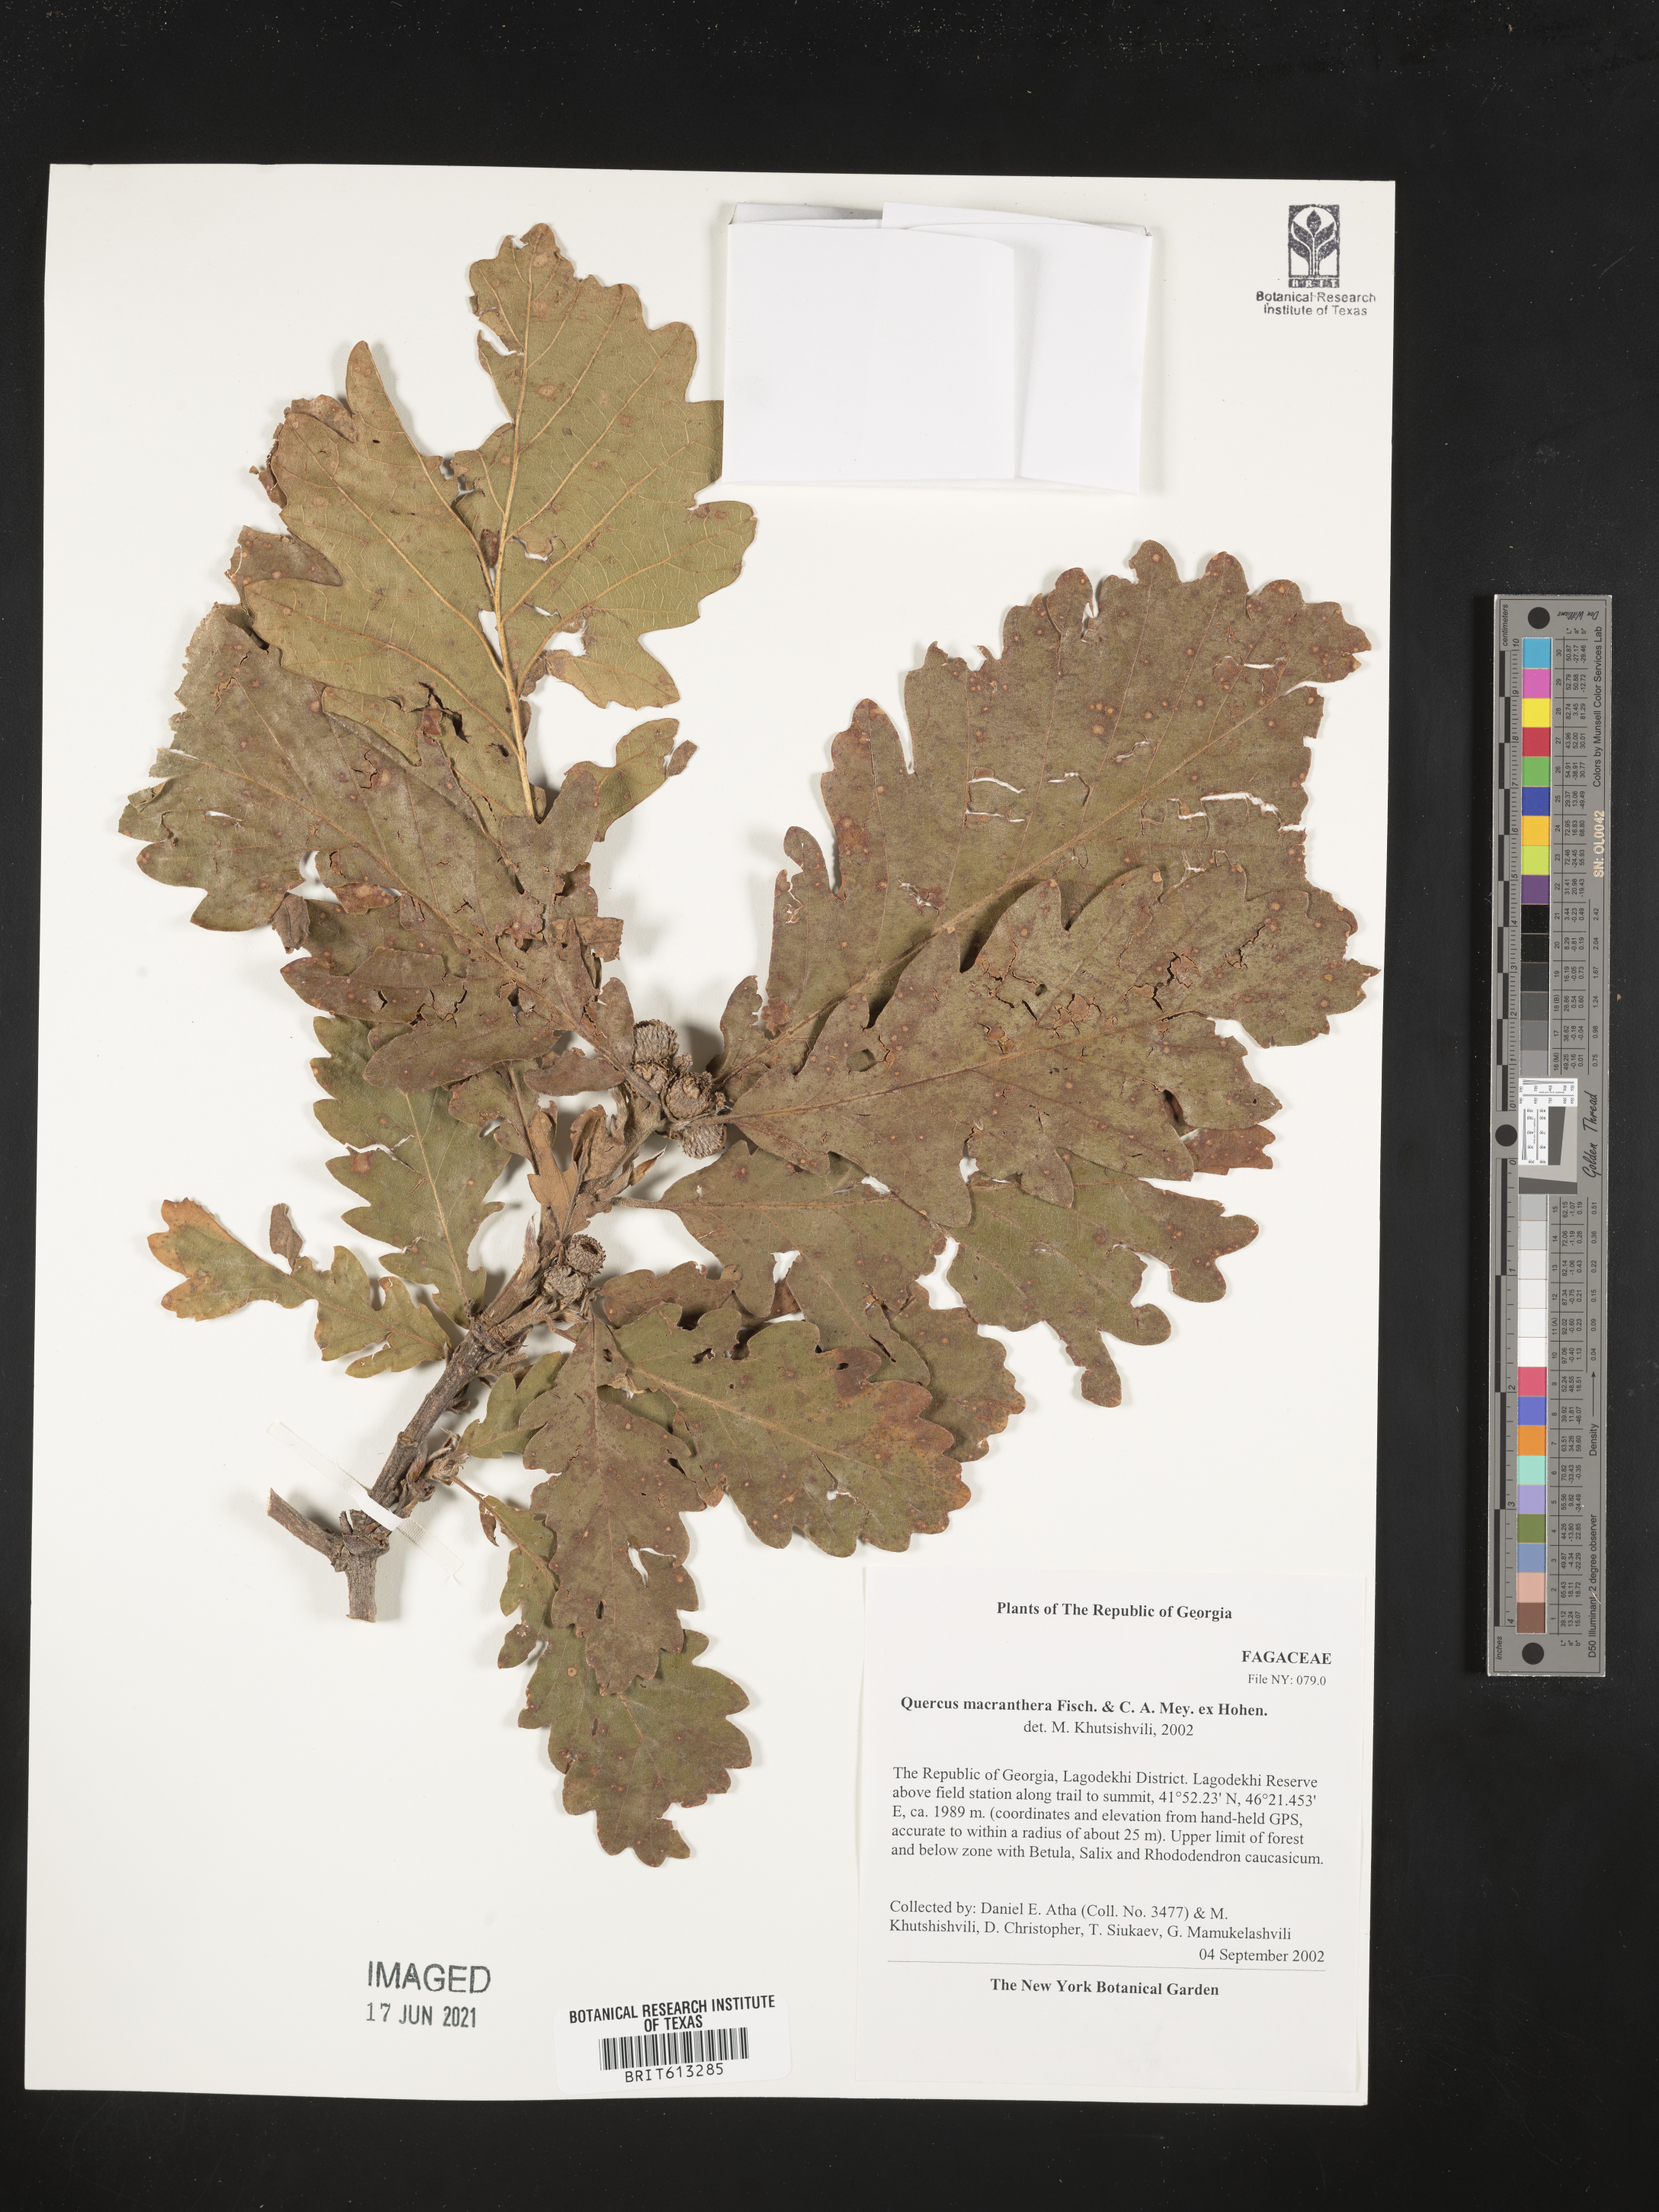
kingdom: Plantae
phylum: Tracheophyta
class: Magnoliopsida
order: Fagales
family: Fagaceae
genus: Quercus
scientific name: Quercus macranthera
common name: Caucasian oak
